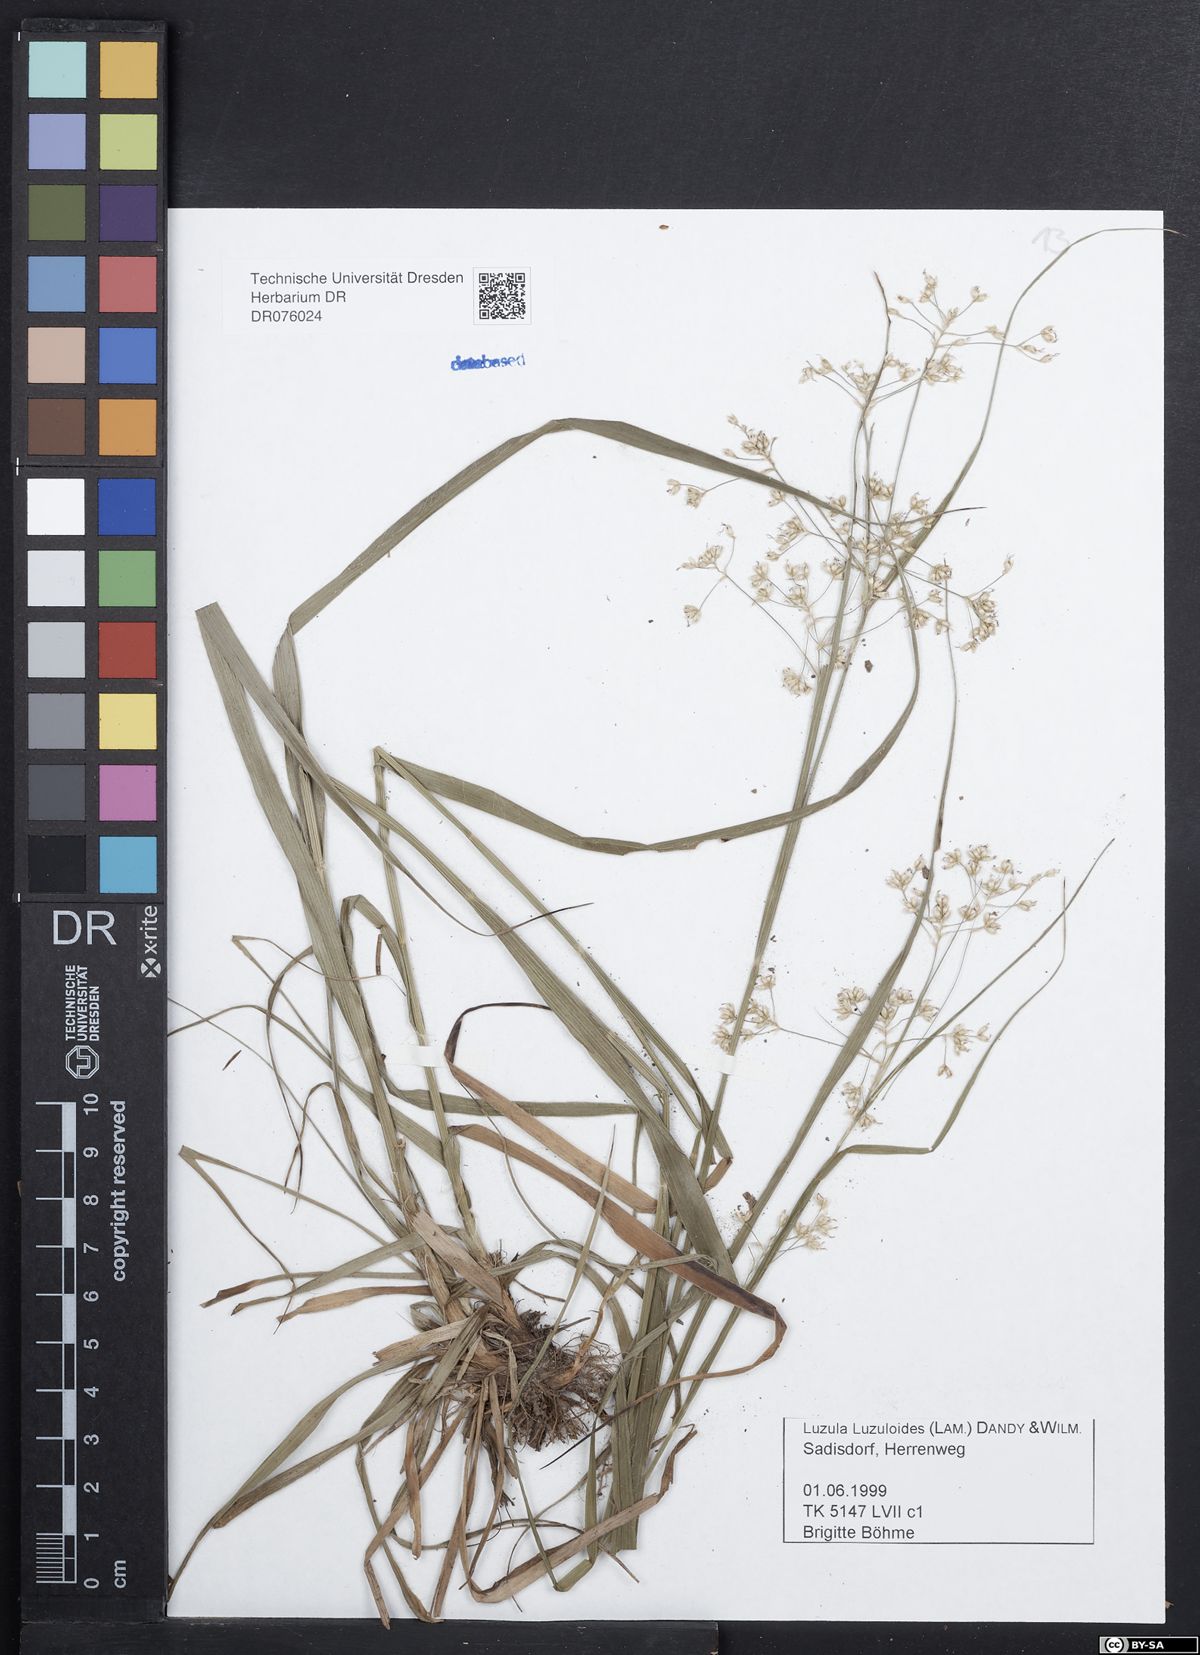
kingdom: Plantae
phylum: Tracheophyta
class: Liliopsida
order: Poales
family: Juncaceae
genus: Luzula
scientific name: Luzula luzuloides
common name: White wood-rush
